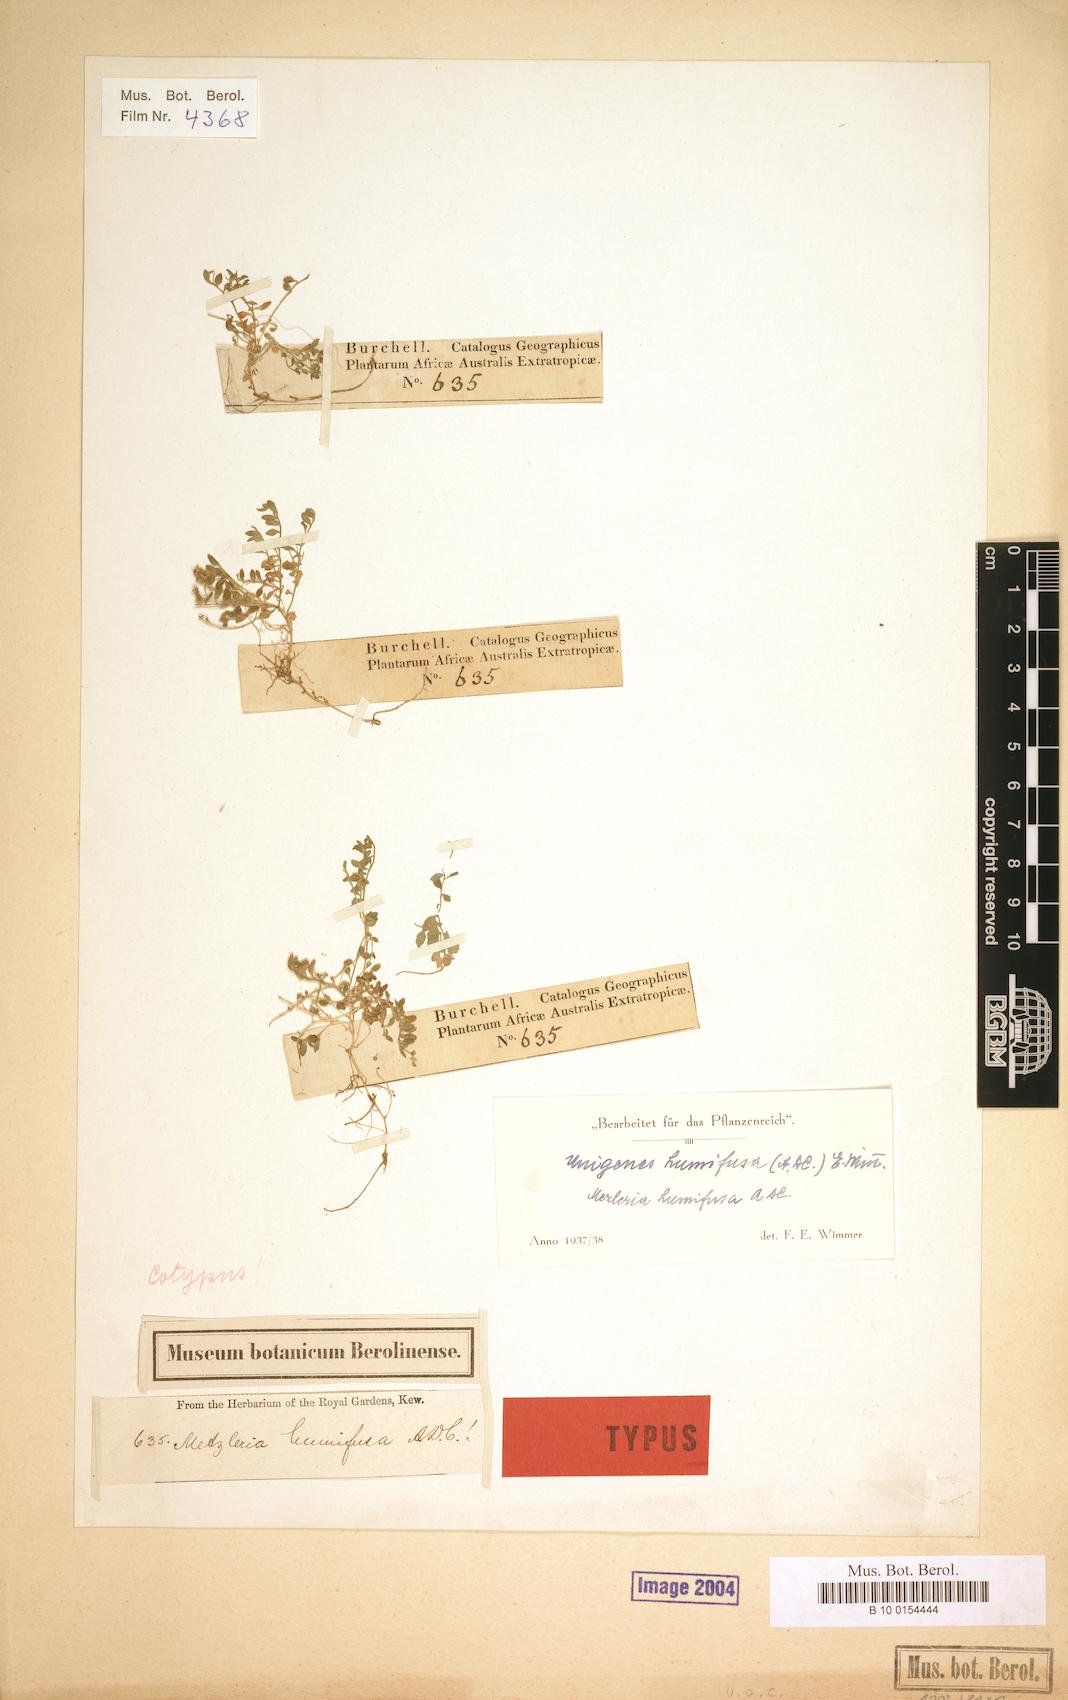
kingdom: Plantae
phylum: Tracheophyta
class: Magnoliopsida
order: Asterales
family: Campanulaceae
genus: Unigenes
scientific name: Unigenes humifusa
